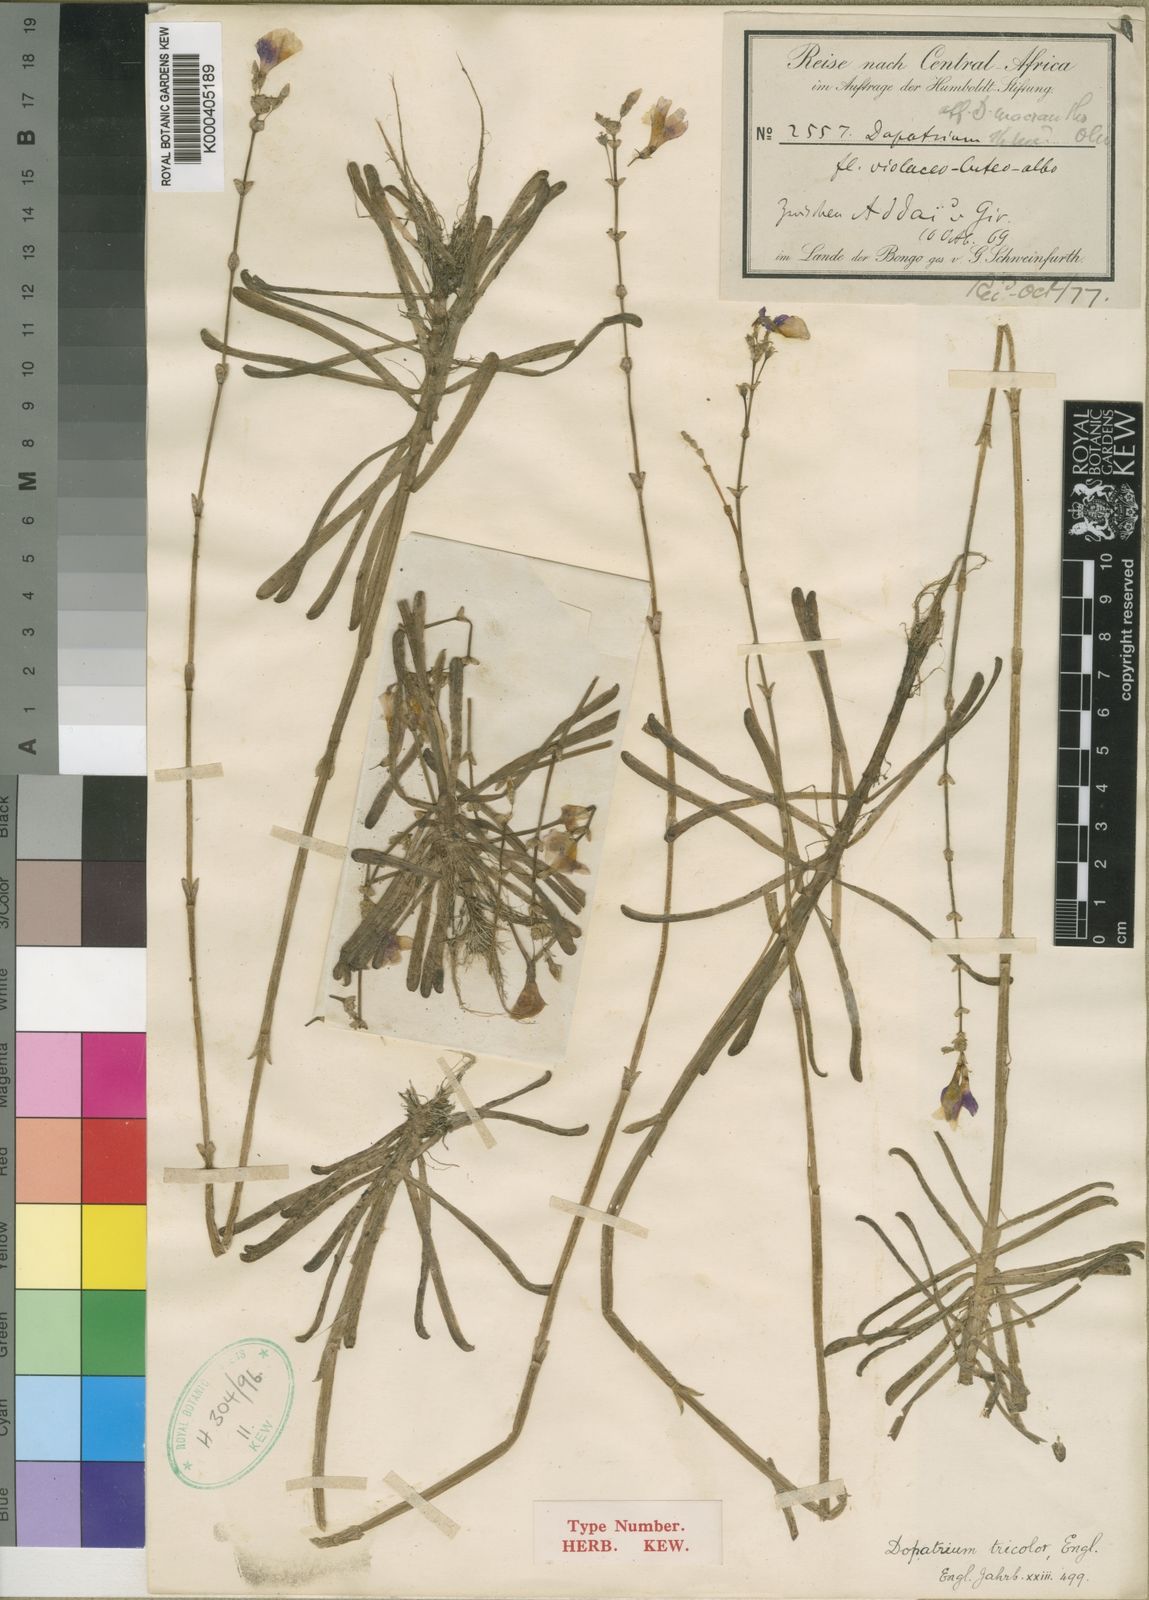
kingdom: Plantae
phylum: Tracheophyta
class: Magnoliopsida
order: Lamiales
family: Plantaginaceae
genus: Dopatrium
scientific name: Dopatrium macranthum
